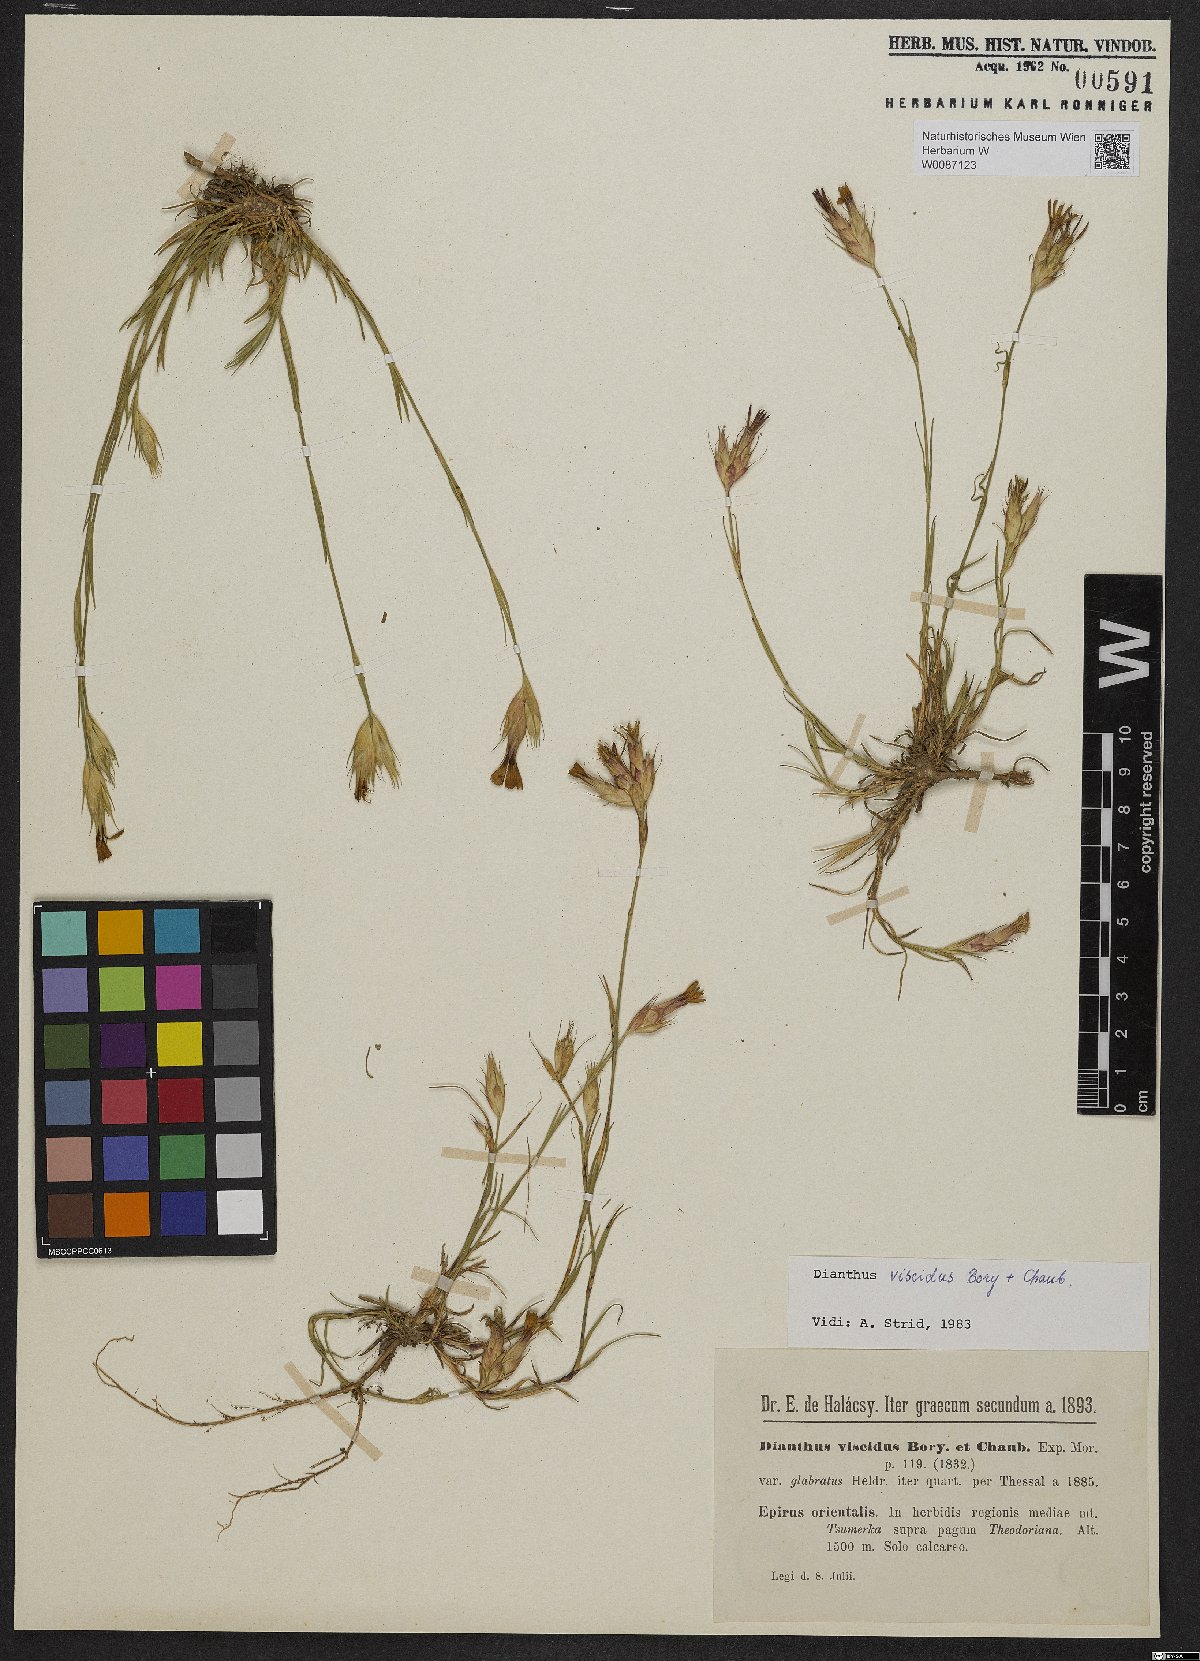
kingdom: Plantae
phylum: Tracheophyta
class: Magnoliopsida
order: Caryophyllales
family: Caryophyllaceae
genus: Dianthus
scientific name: Dianthus viscidus
